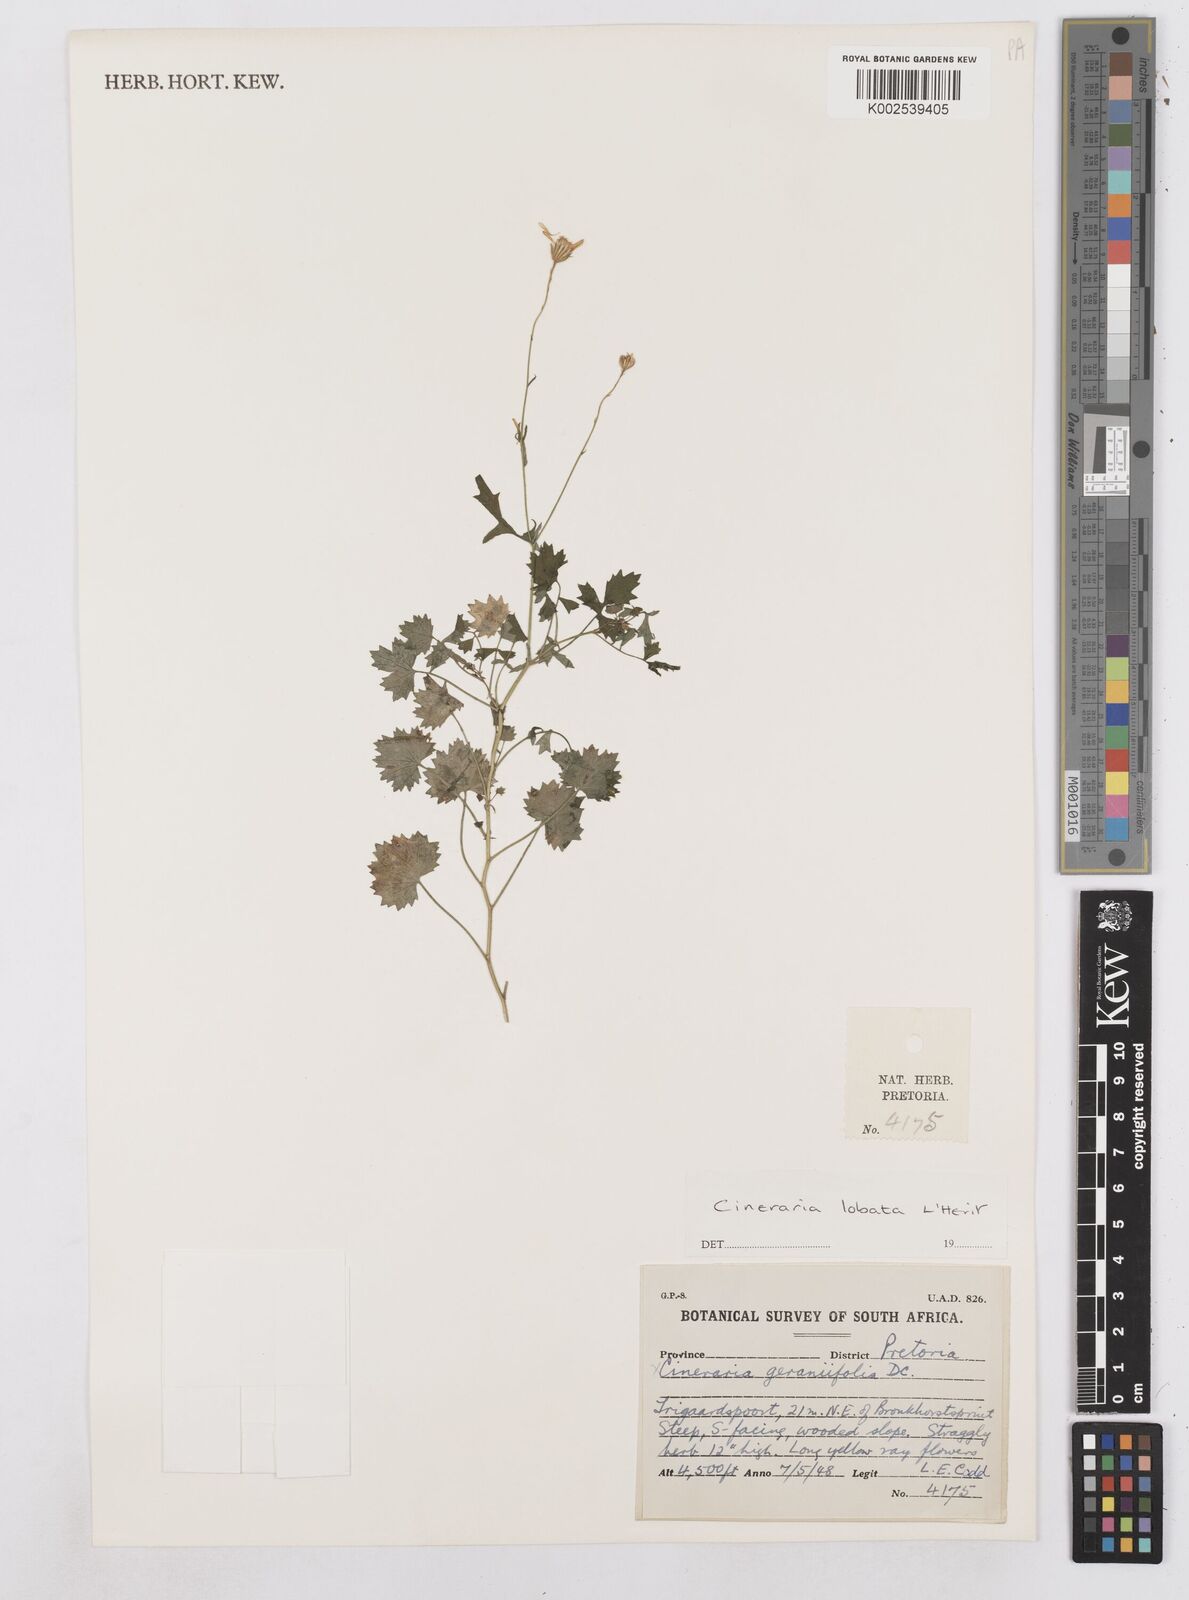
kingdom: Plantae
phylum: Tracheophyta
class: Magnoliopsida
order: Asterales
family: Asteraceae
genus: Cineraria
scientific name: Cineraria
